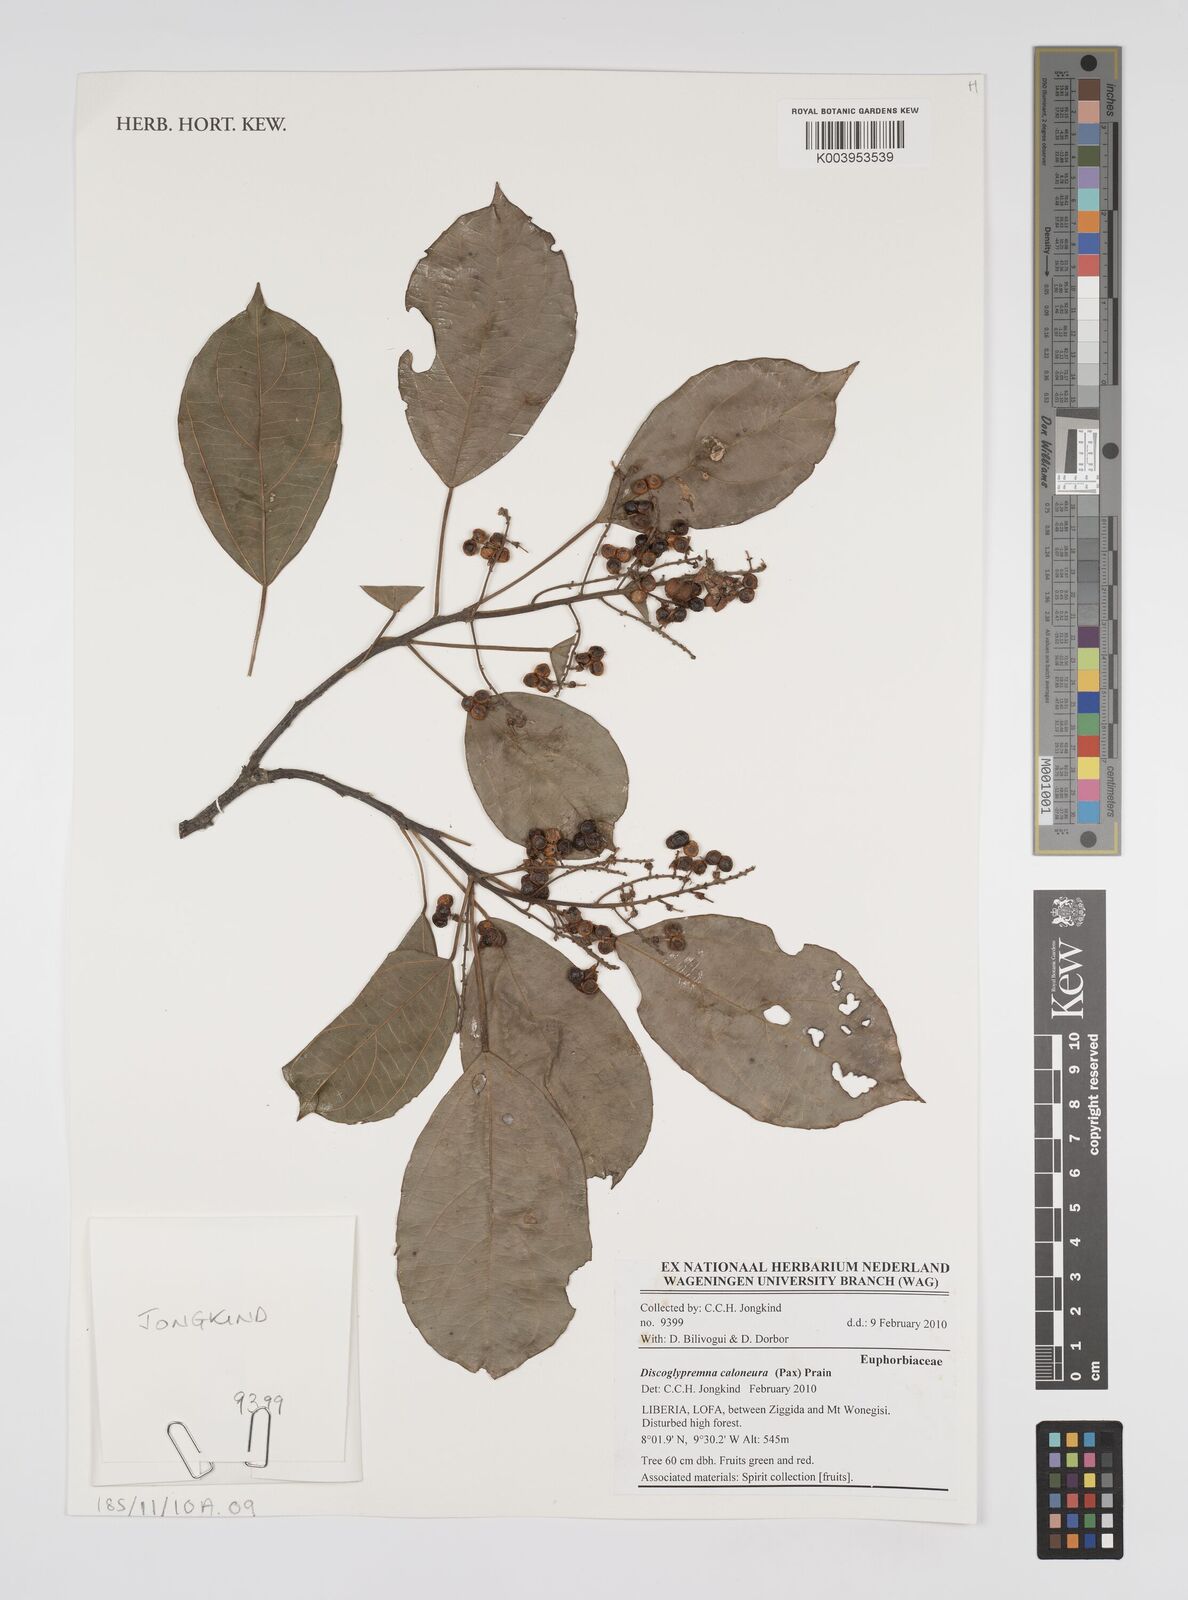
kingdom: Plantae
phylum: Tracheophyta
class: Magnoliopsida
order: Malpighiales
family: Euphorbiaceae
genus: Discoglypremna
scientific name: Discoglypremna caloneura
